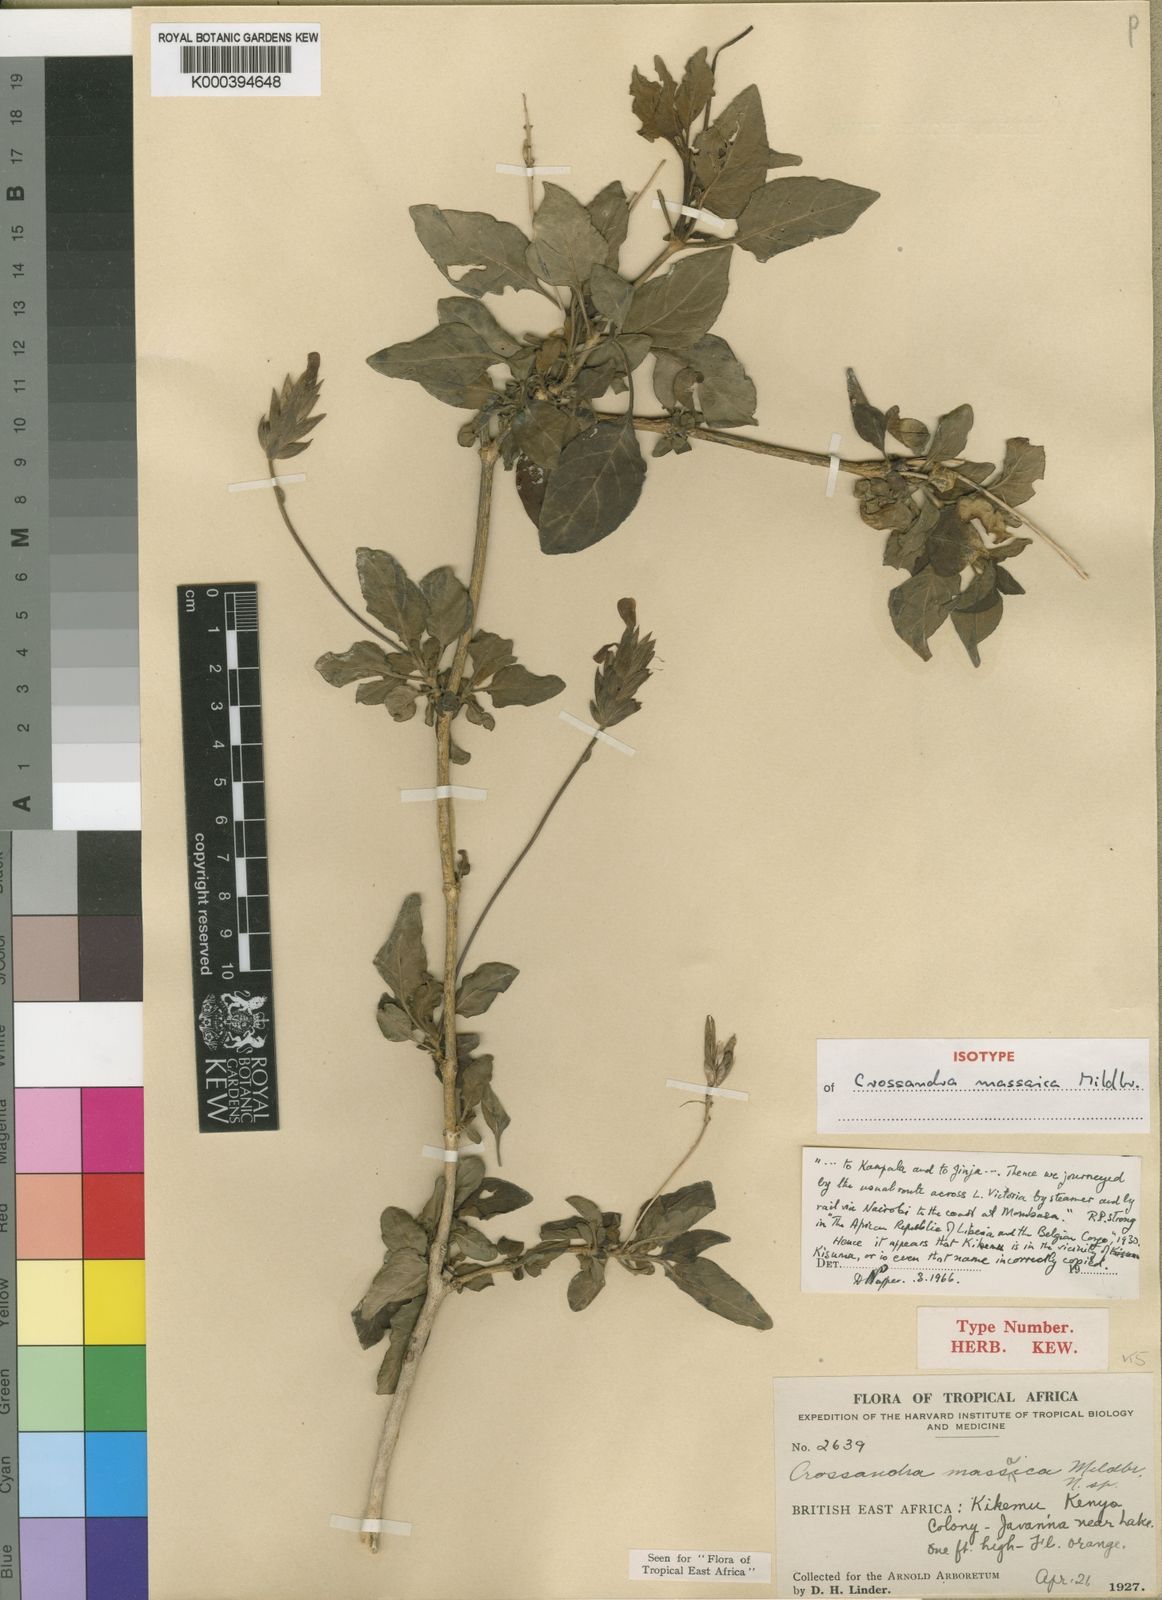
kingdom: Plantae
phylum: Tracheophyta
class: Magnoliopsida
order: Lamiales
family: Acanthaceae
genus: Crossandra
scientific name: Crossandra massaica
